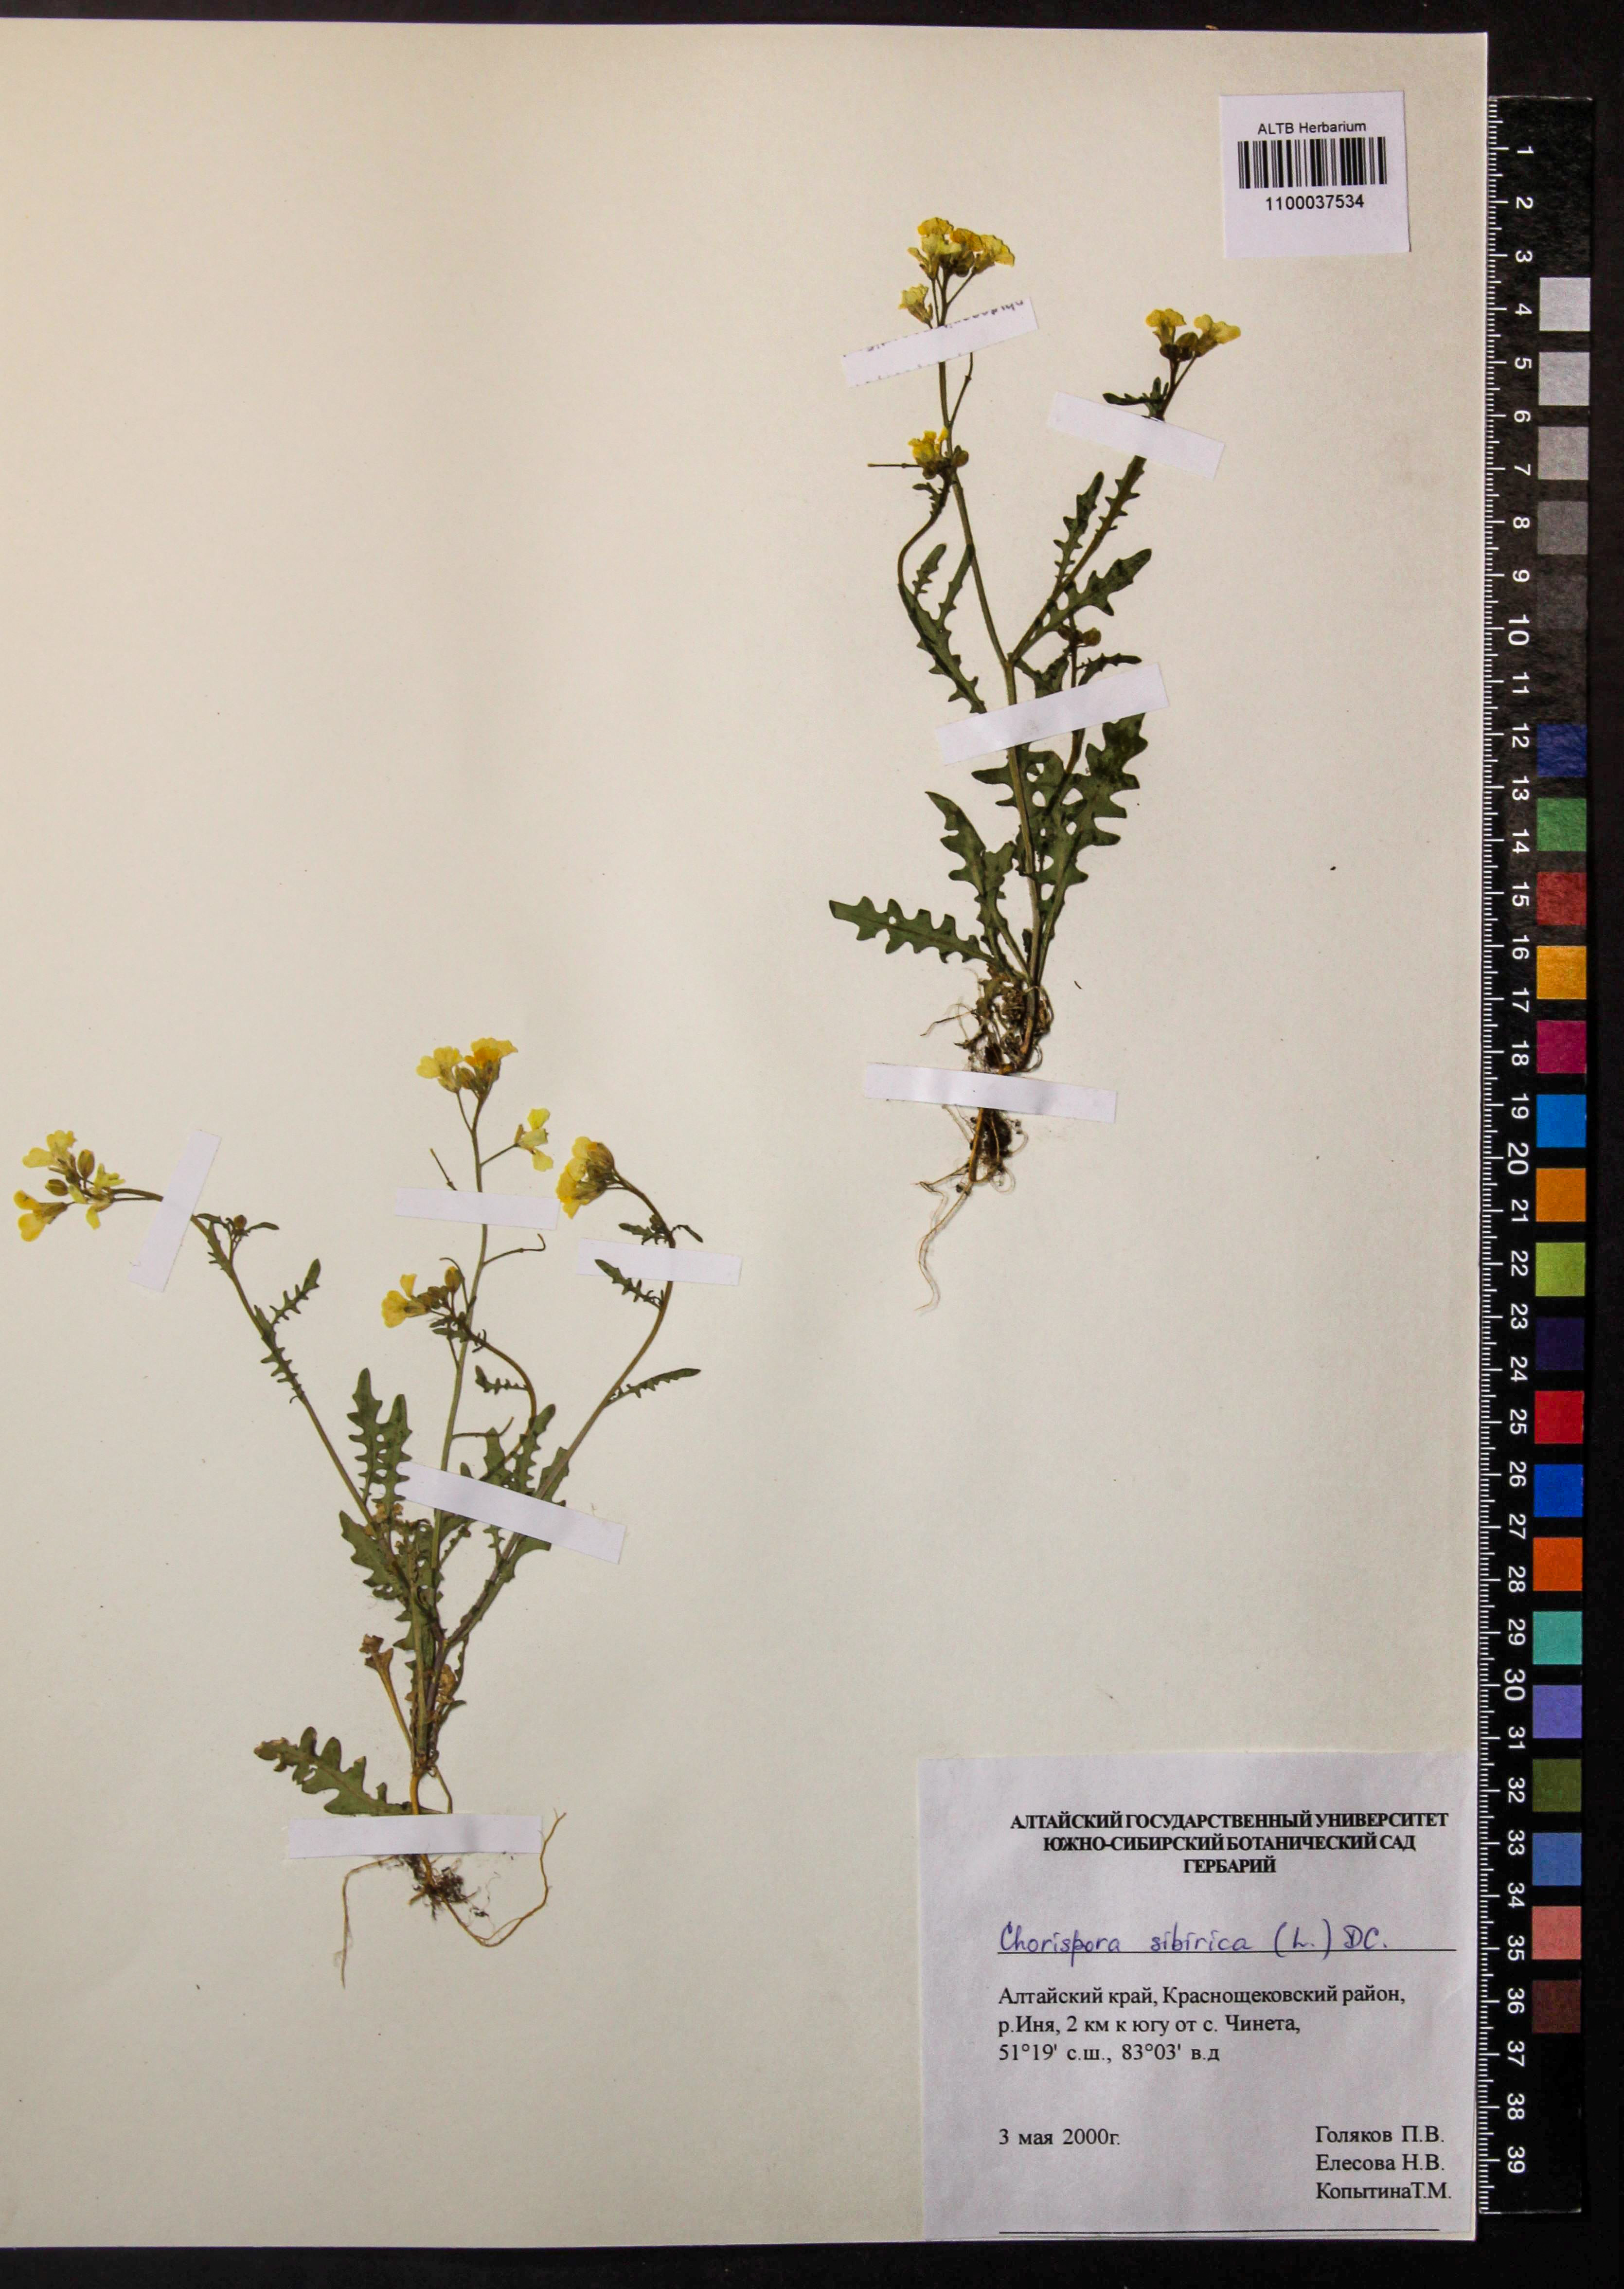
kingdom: Plantae
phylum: Tracheophyta
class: Magnoliopsida
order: Brassicales
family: Brassicaceae
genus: Chorispora
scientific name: Chorispora sibirica
